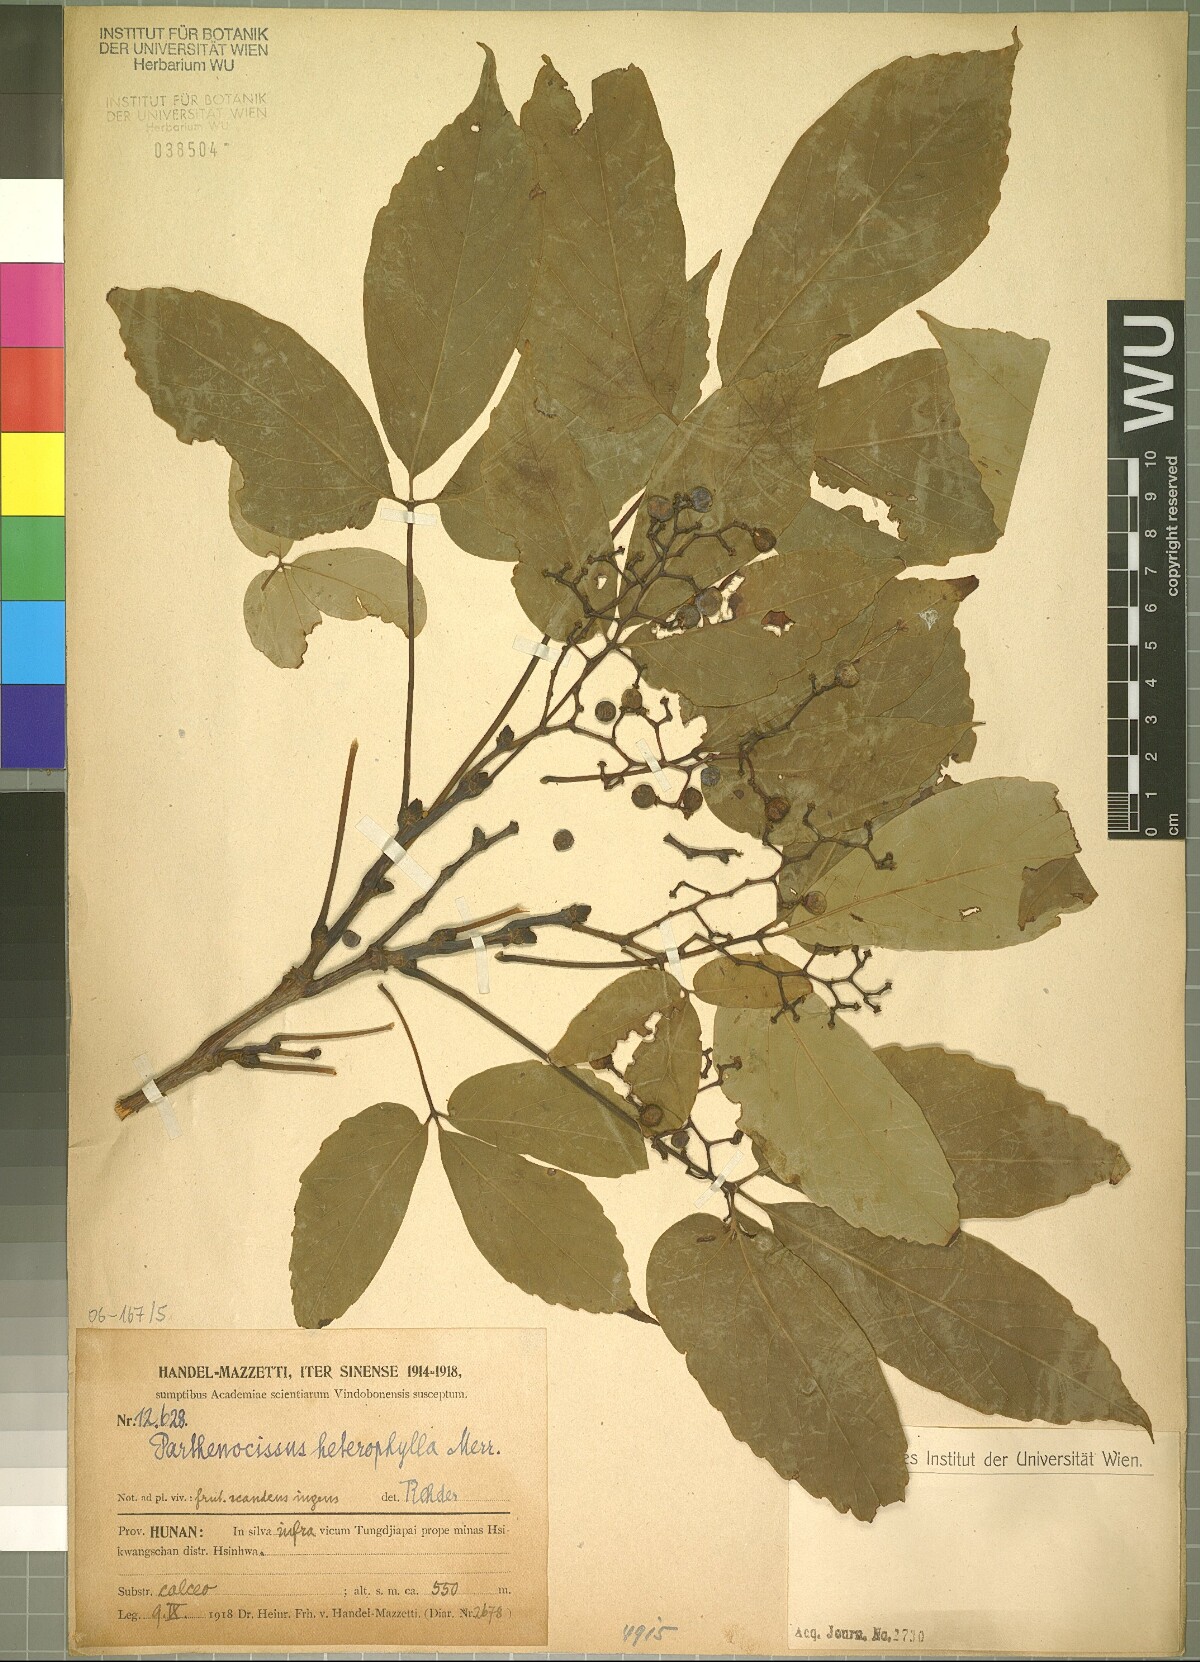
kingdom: Plantae
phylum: Tracheophyta
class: Magnoliopsida
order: Vitales
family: Vitaceae
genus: Parthenocissus
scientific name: Parthenocissus semicordata
